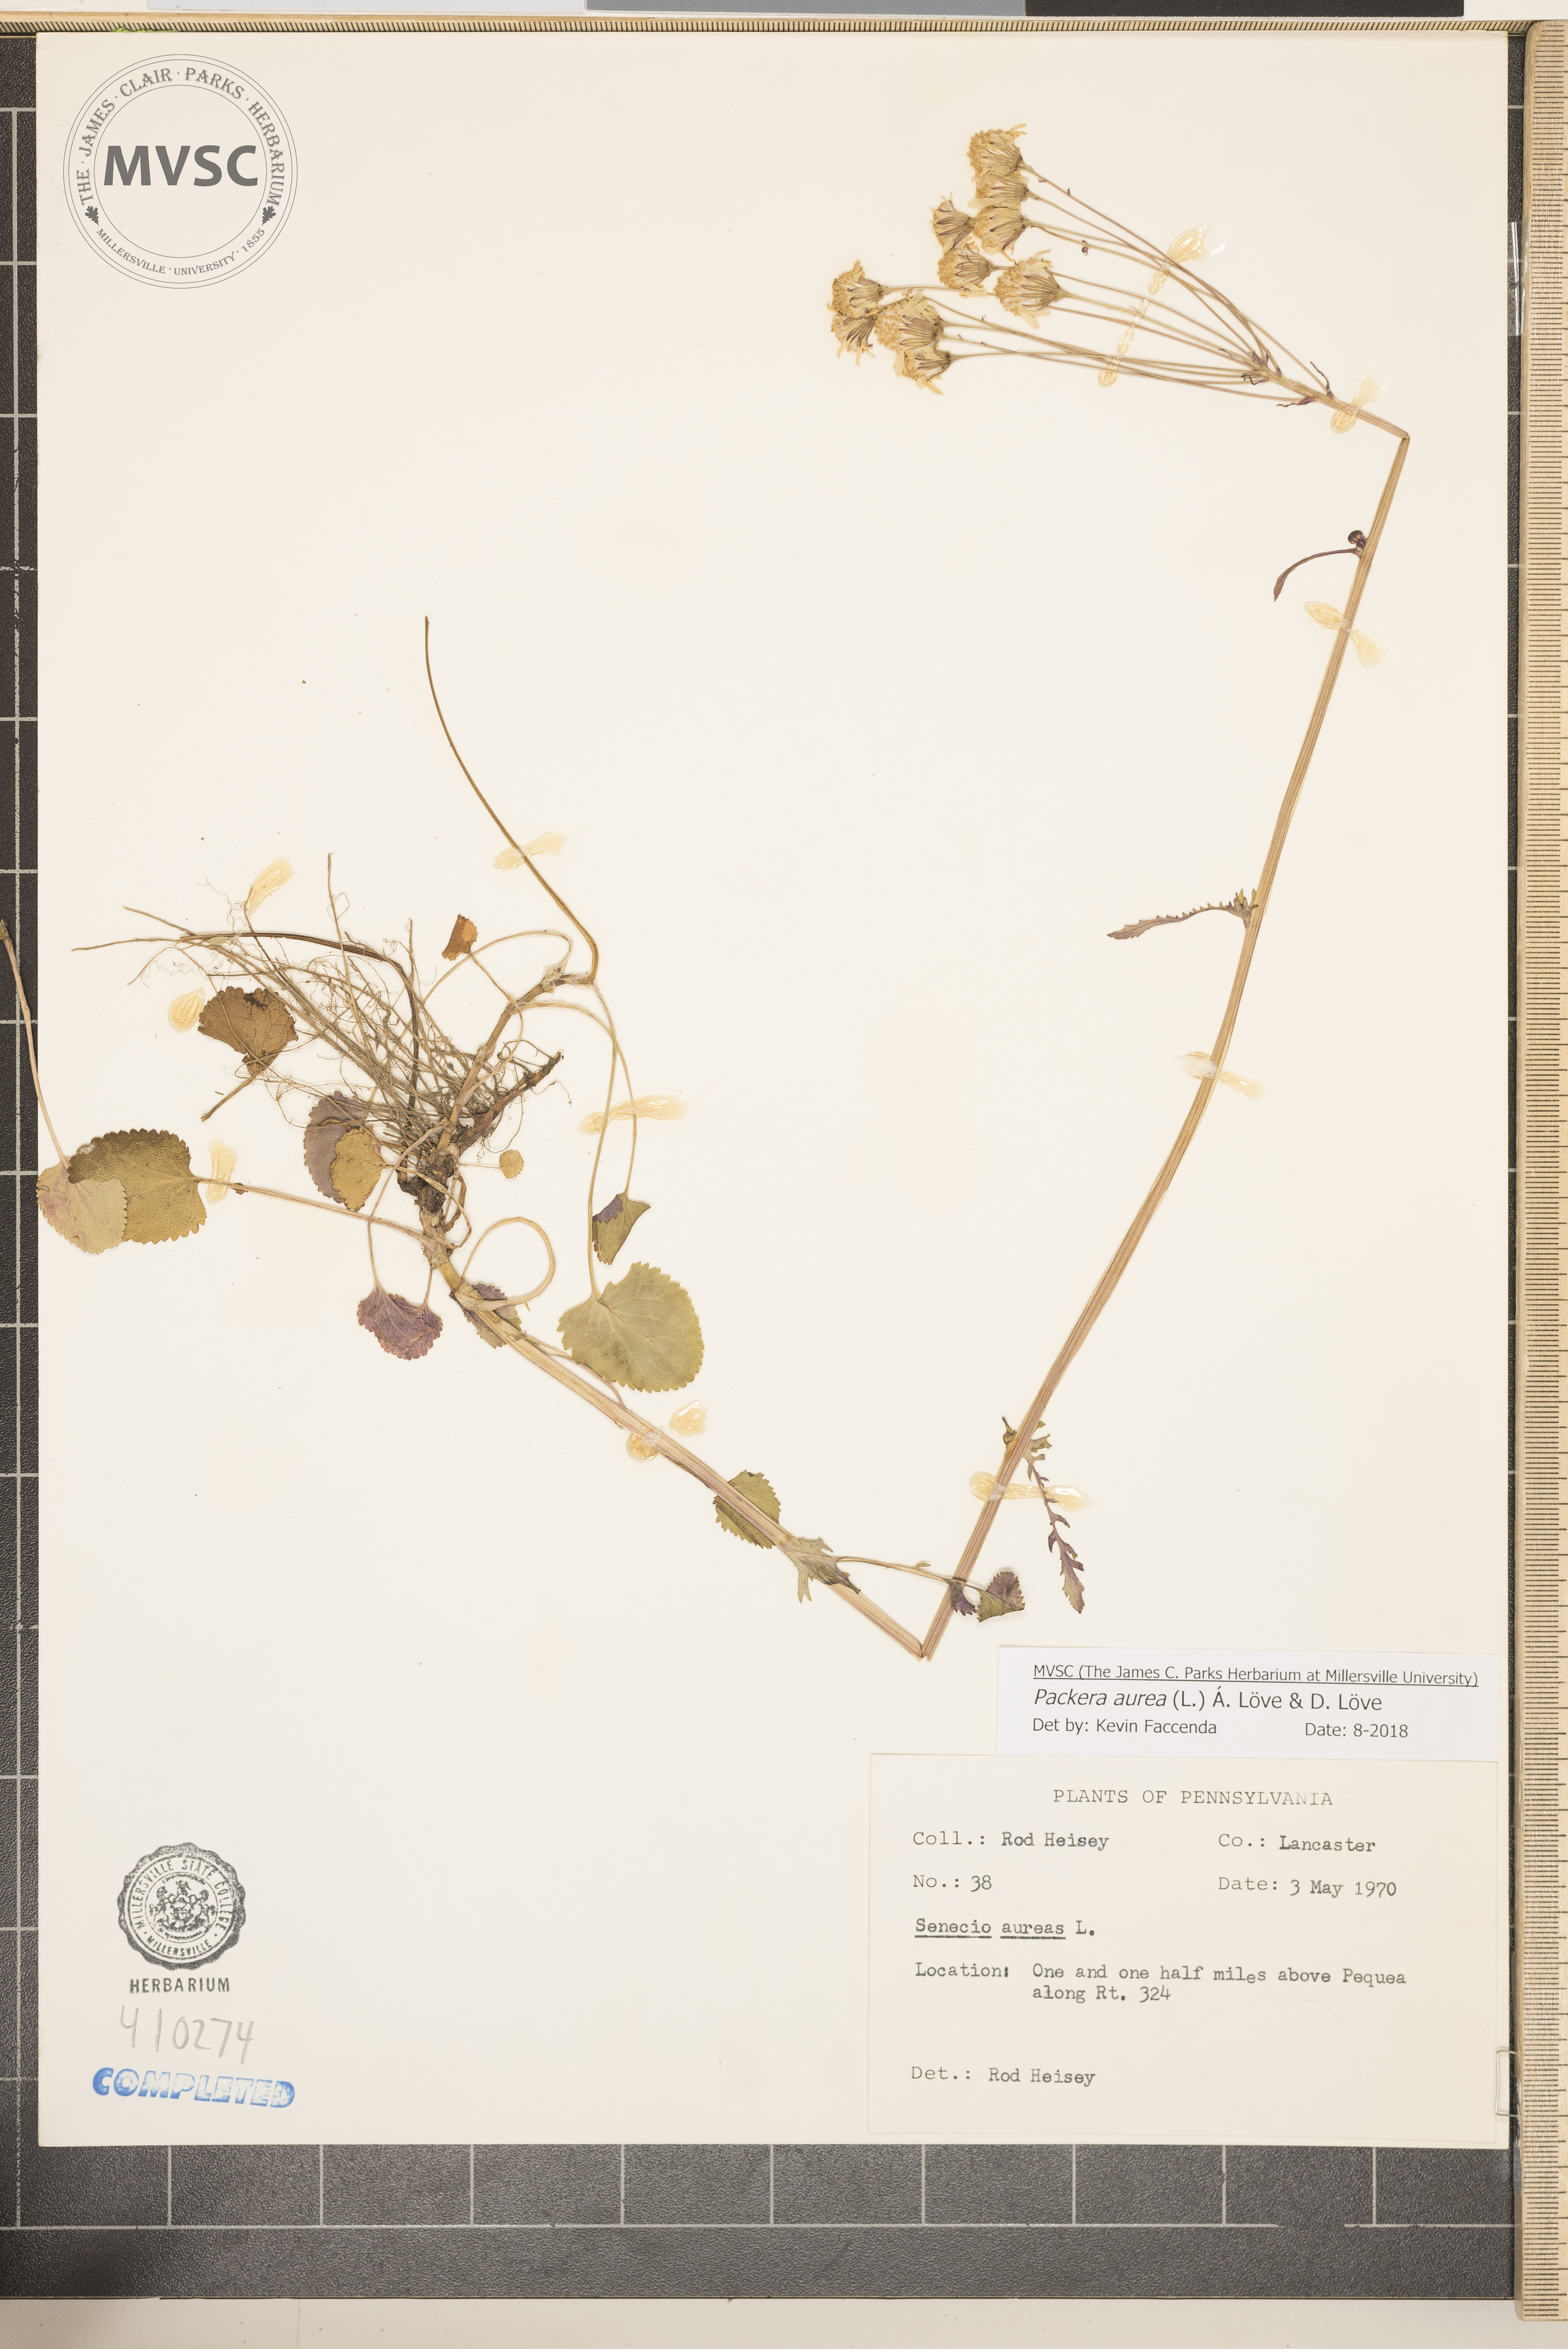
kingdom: Plantae
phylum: Tracheophyta
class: Magnoliopsida
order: Asterales
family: Asteraceae
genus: Packera
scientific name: Packera aurea
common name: Golden groundsel
